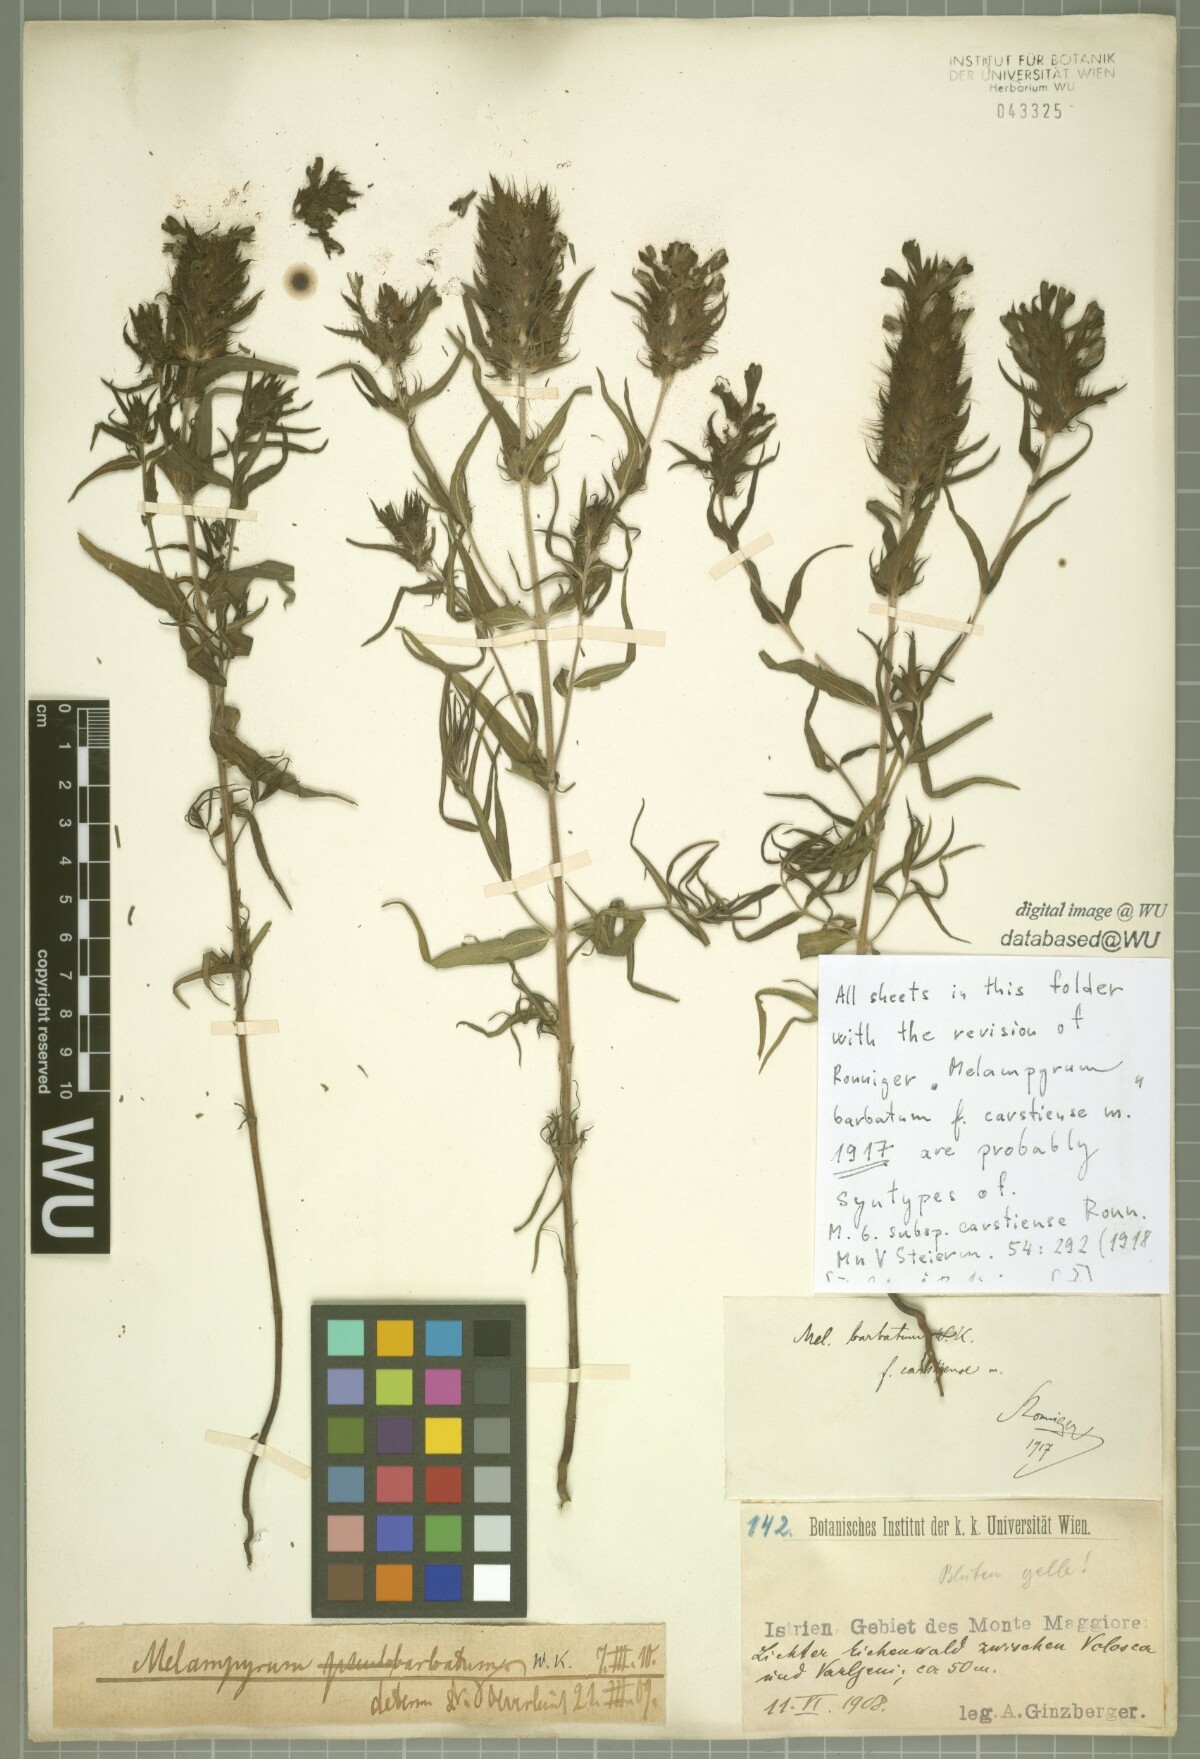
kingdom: Plantae
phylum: Tracheophyta
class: Magnoliopsida
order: Lamiales
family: Orobanchaceae
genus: Melampyrum
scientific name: Melampyrum barbatum
